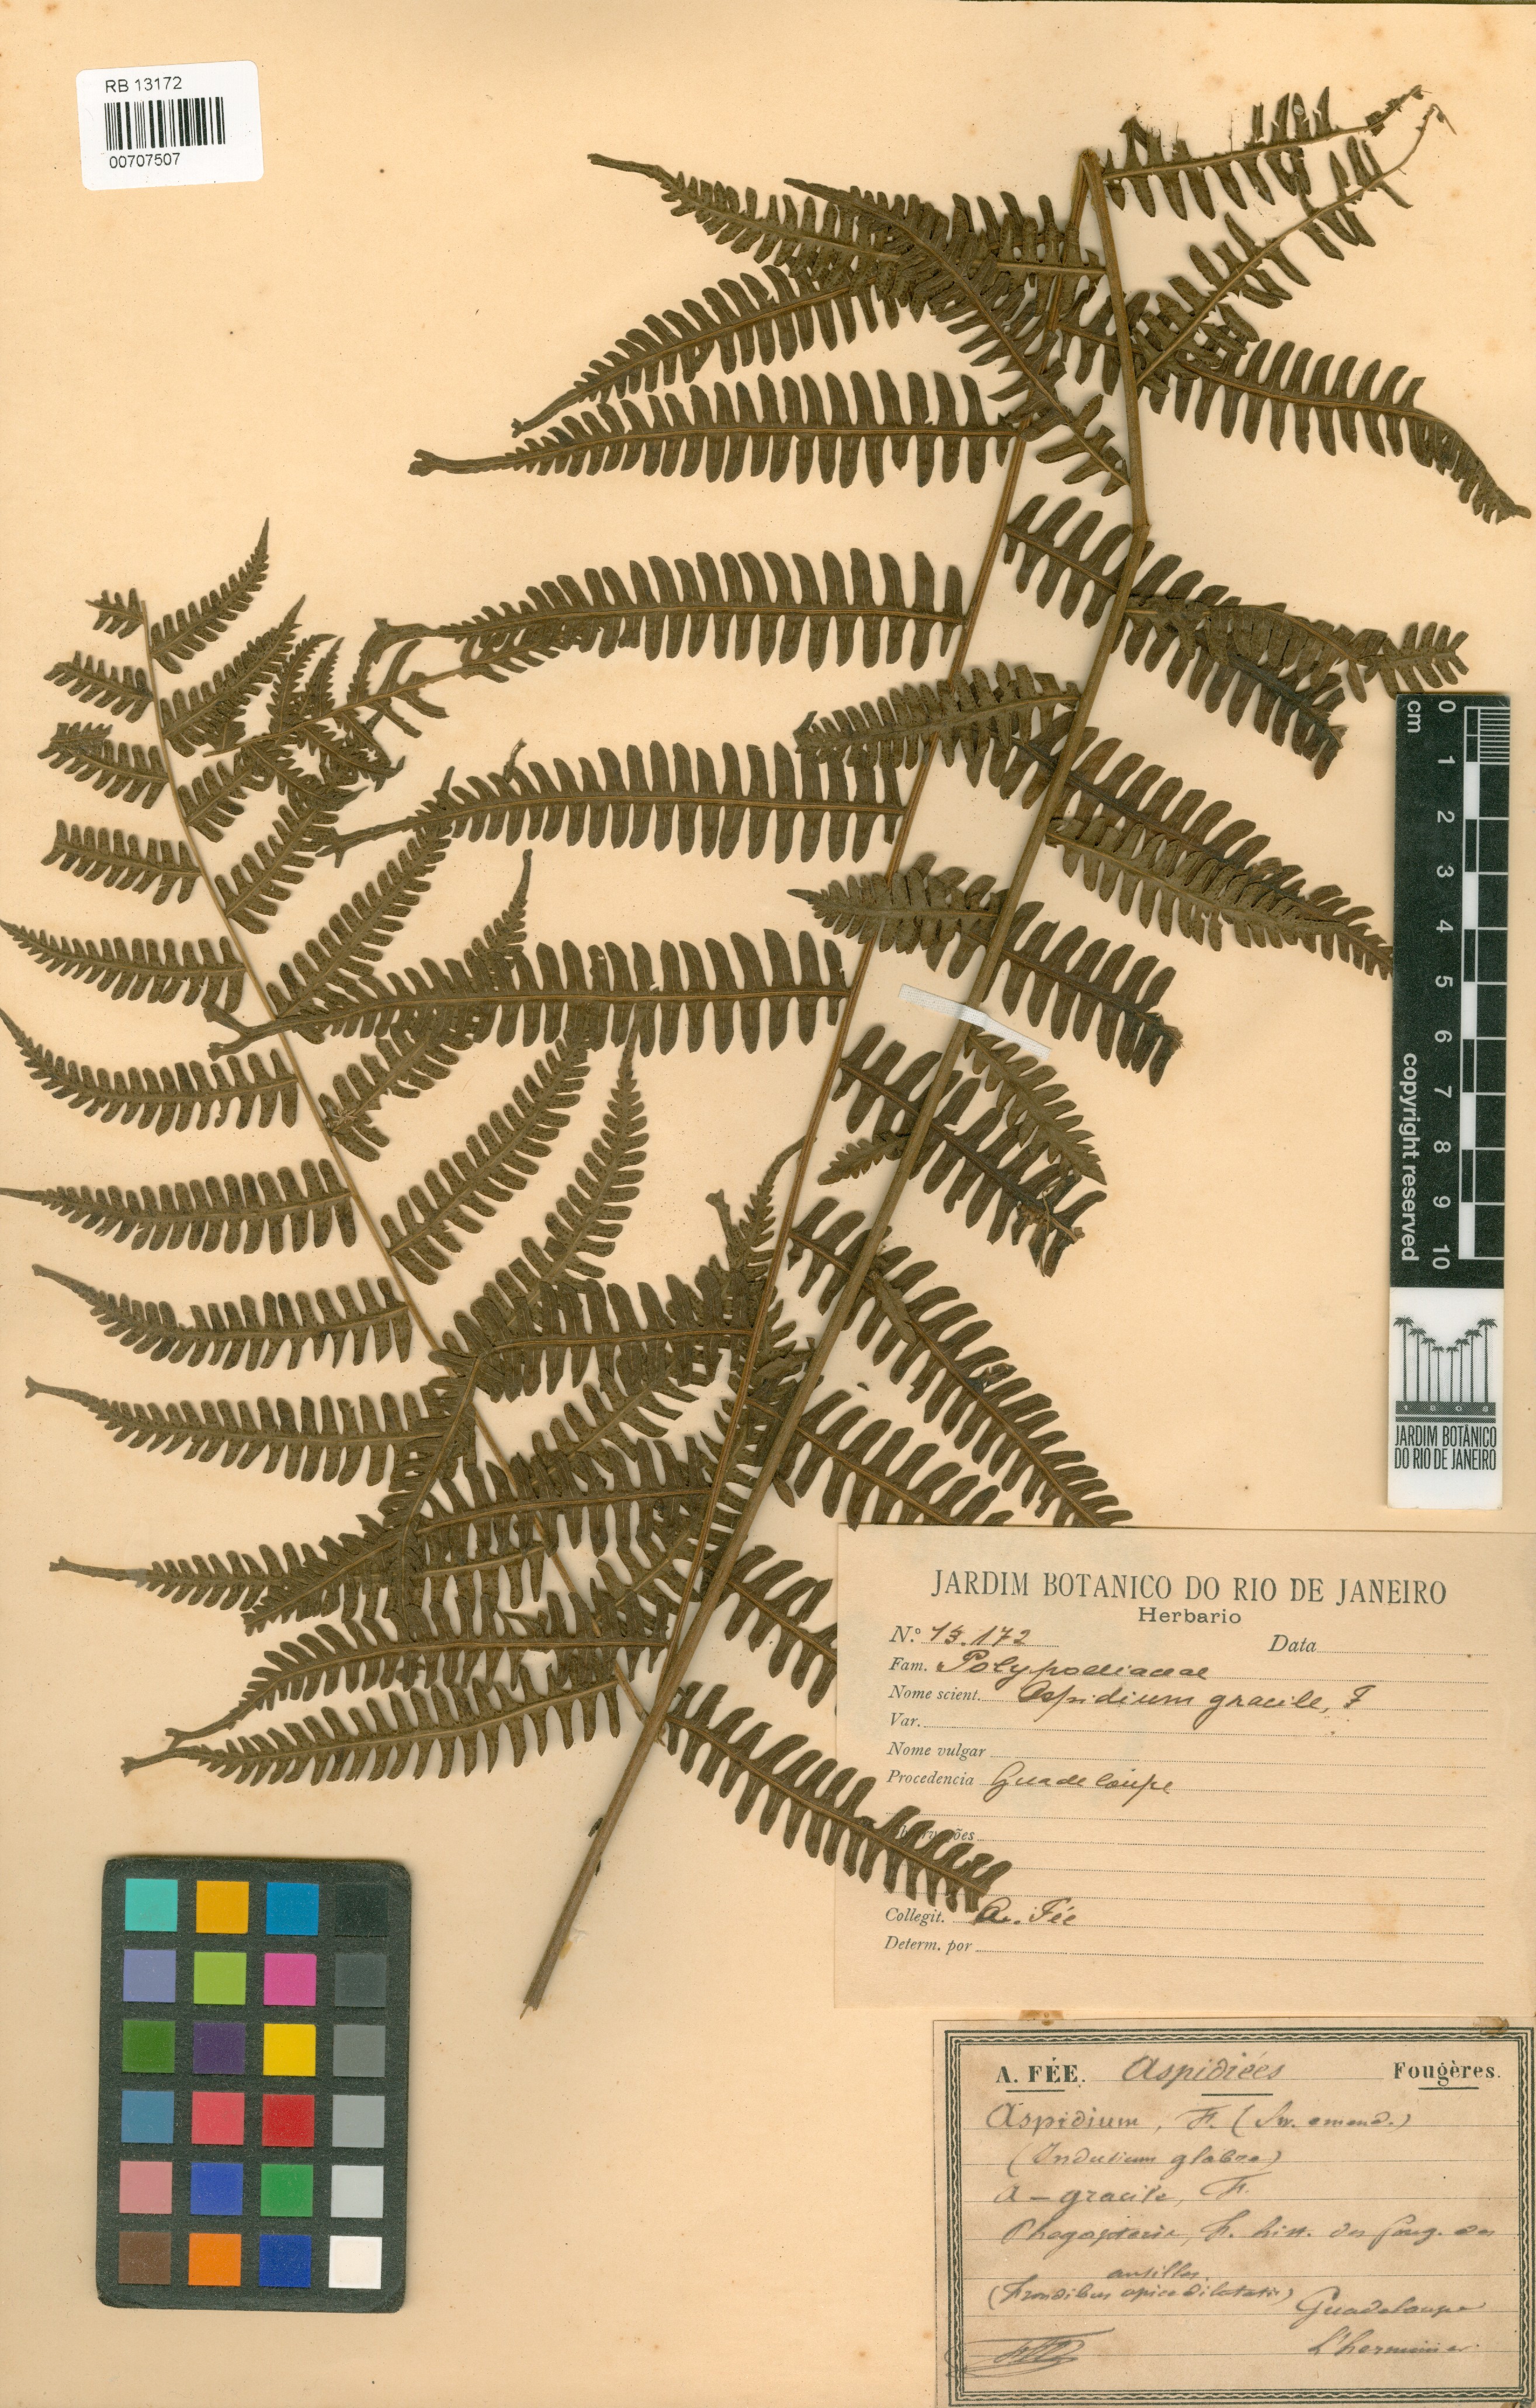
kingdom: Plantae
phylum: Tracheophyta
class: Polypodiopsida
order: Polypodiales
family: Thelypteridaceae
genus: Pelazoneuron
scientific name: Pelazoneuron patens
